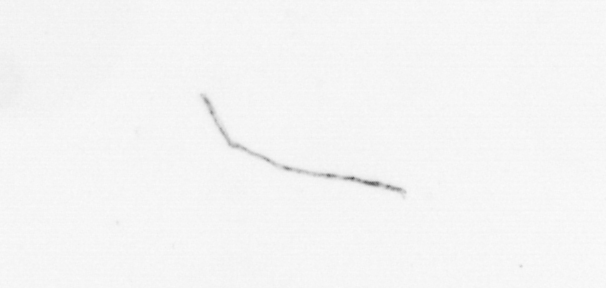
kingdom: Chromista
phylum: Ochrophyta
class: Bacillariophyceae
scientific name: Bacillariophyceae
